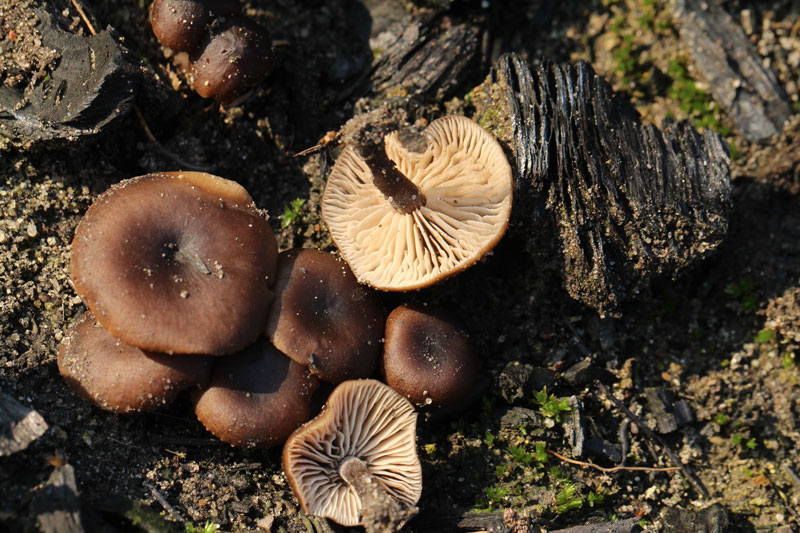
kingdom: Fungi
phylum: Basidiomycota
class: Agaricomycetes
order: Agaricales
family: Lyophyllaceae
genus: Tephrocybe
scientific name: Tephrocybe atrata
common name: brandplet-gråblad
